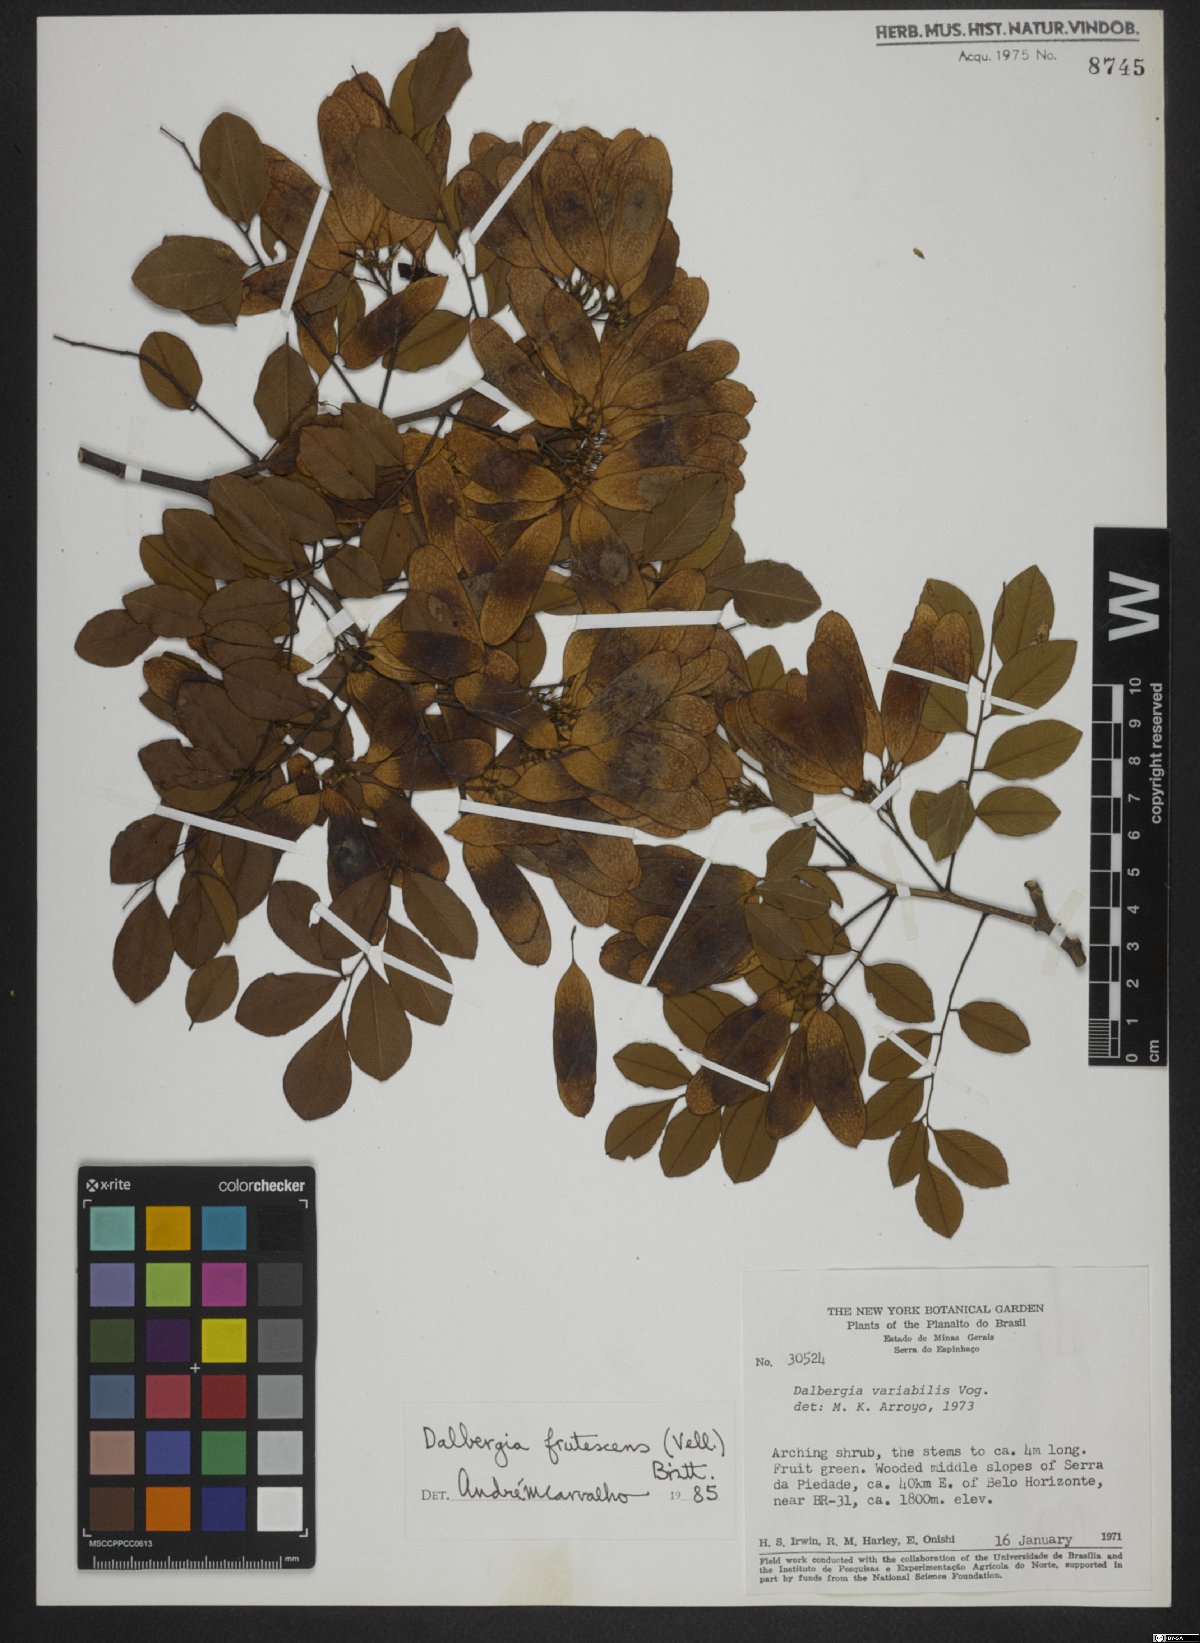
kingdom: Plantae
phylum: Tracheophyta
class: Magnoliopsida
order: Fabales
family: Fabaceae
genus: Dalbergia
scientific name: Dalbergia frutescens
